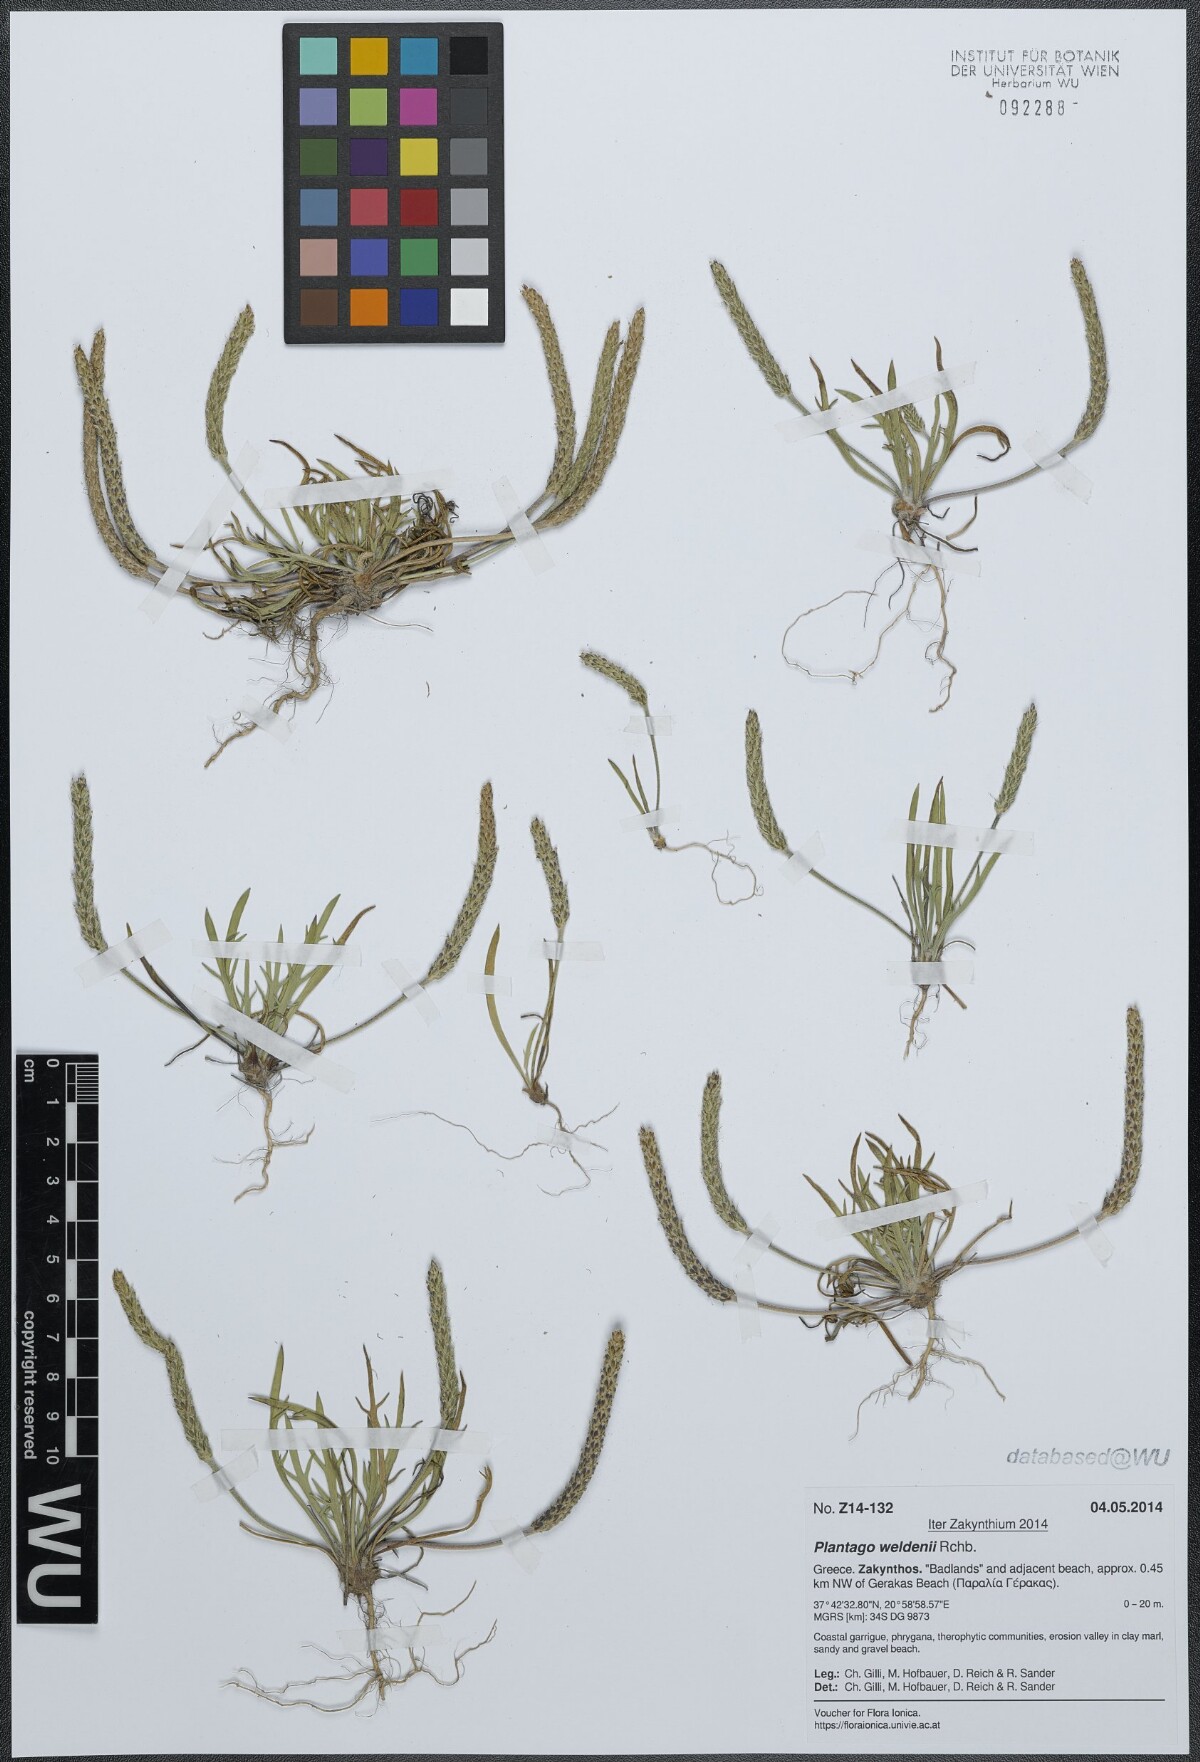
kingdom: Plantae
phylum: Tracheophyta
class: Magnoliopsida
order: Lamiales
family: Plantaginaceae
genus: Plantago
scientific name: Plantago weldenii
